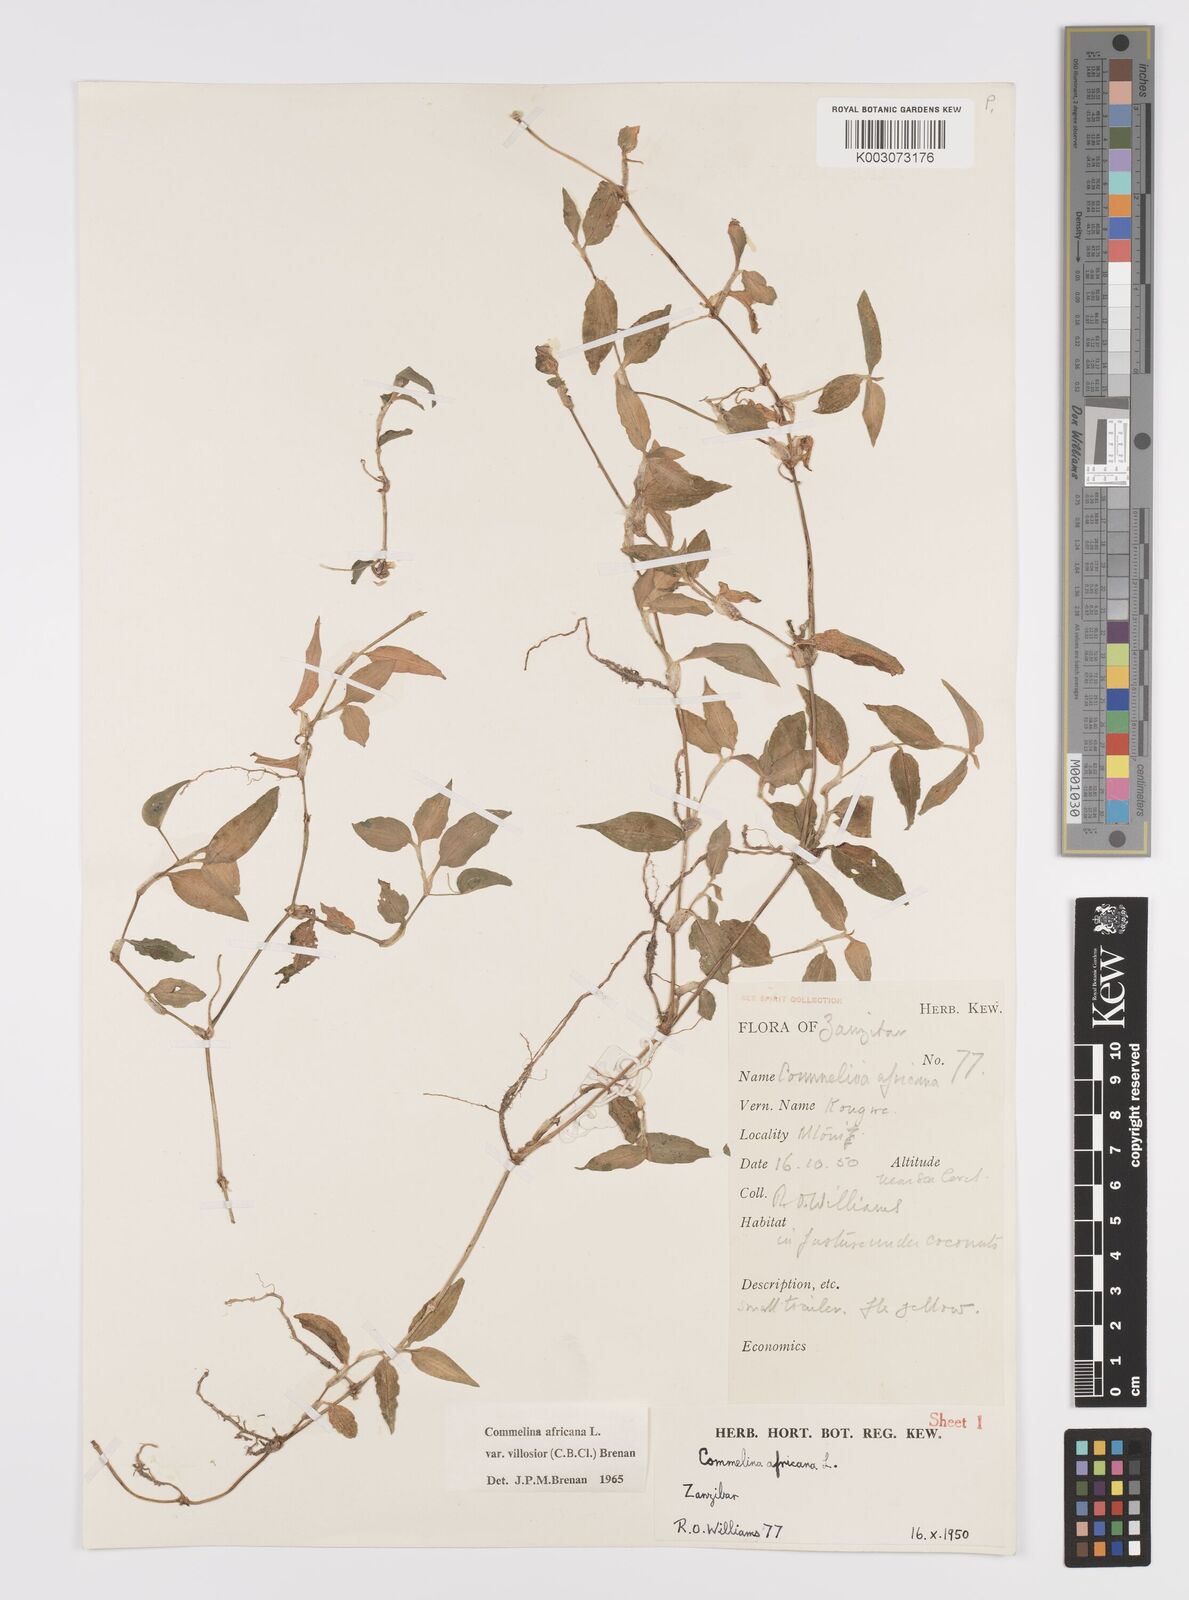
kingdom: Plantae
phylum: Tracheophyta
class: Liliopsida
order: Commelinales
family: Commelinaceae
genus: Commelina
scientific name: Commelina africana
